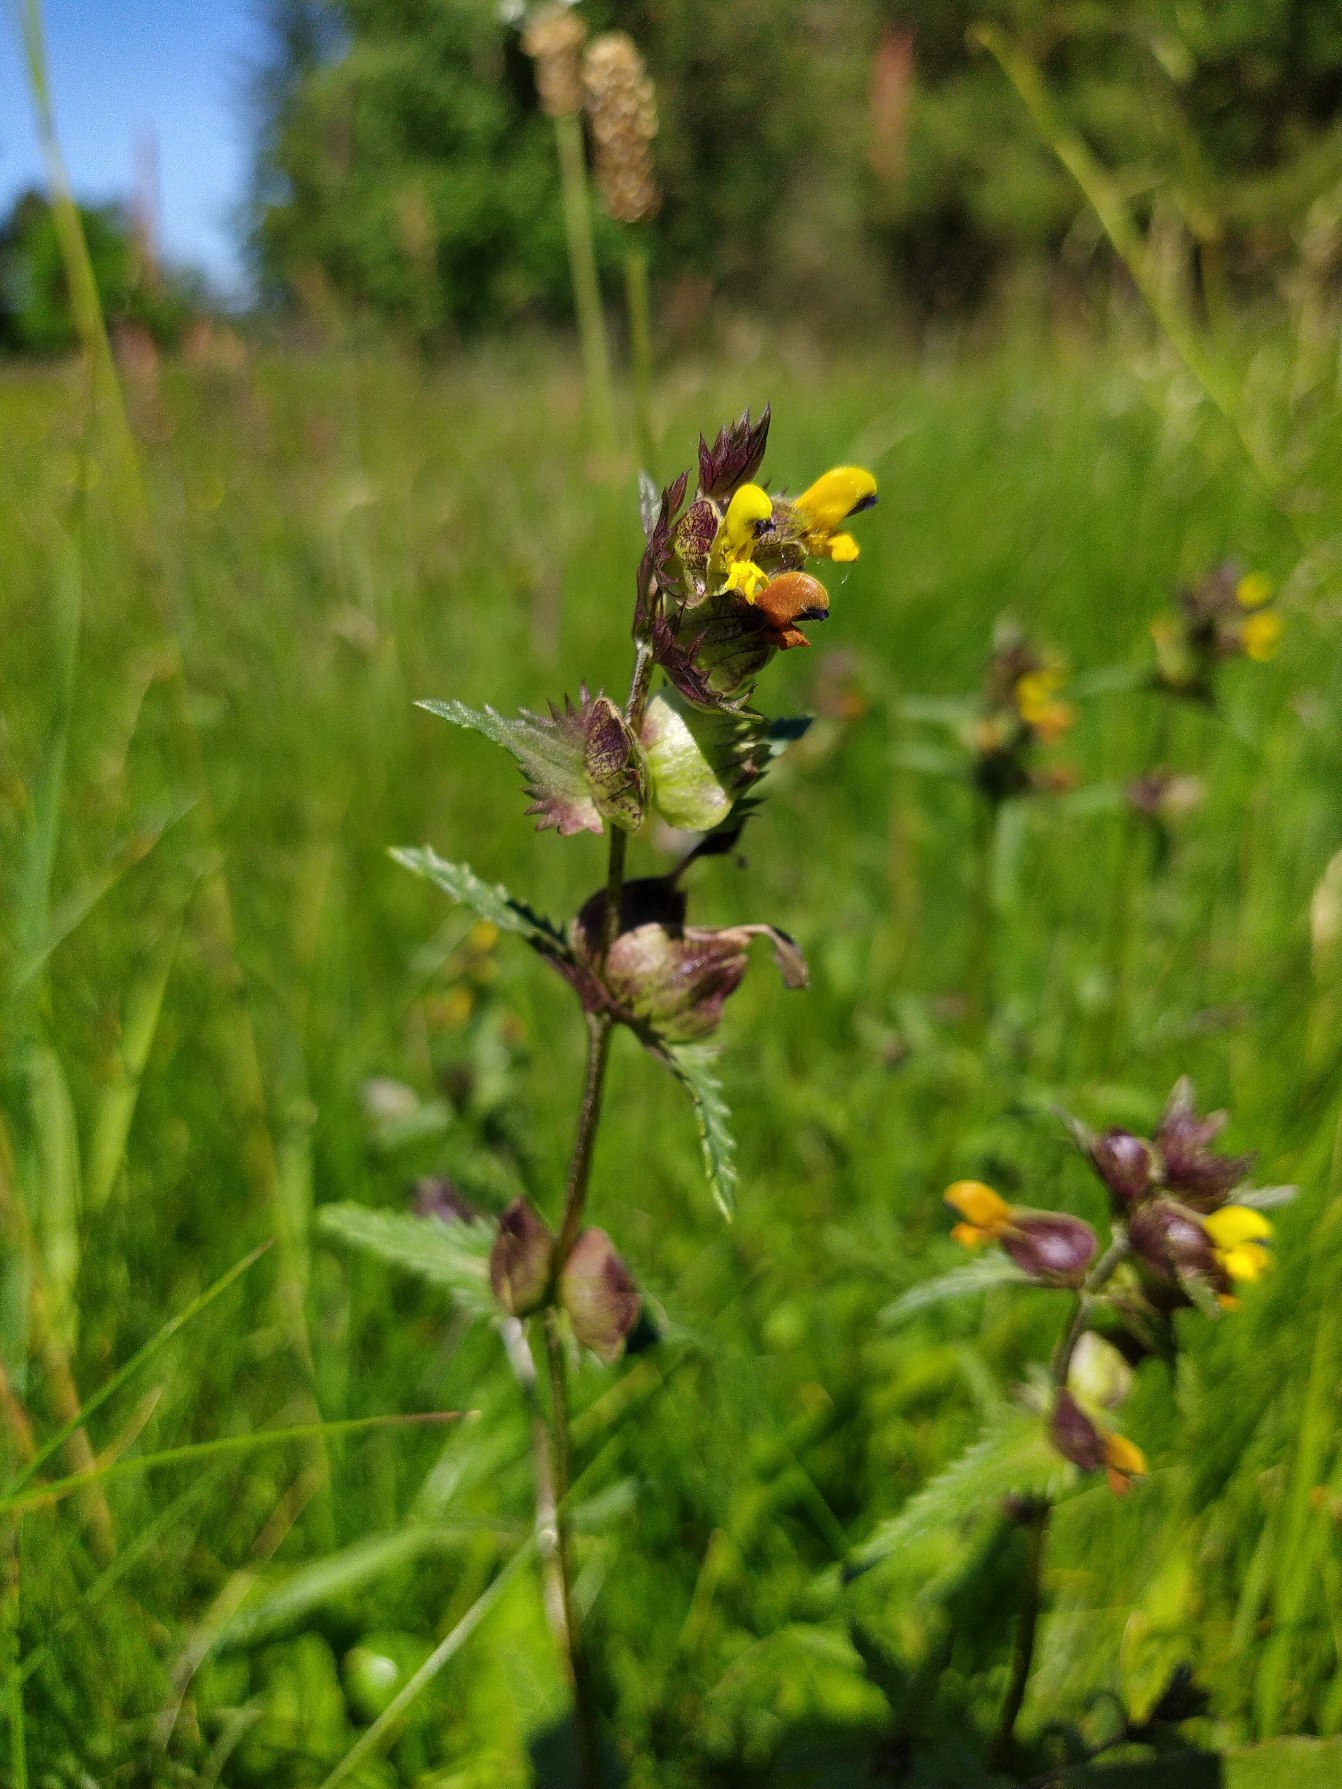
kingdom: Plantae
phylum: Tracheophyta
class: Magnoliopsida
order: Lamiales
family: Orobanchaceae
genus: Rhinanthus
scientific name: Rhinanthus minor
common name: Liden skjaller
